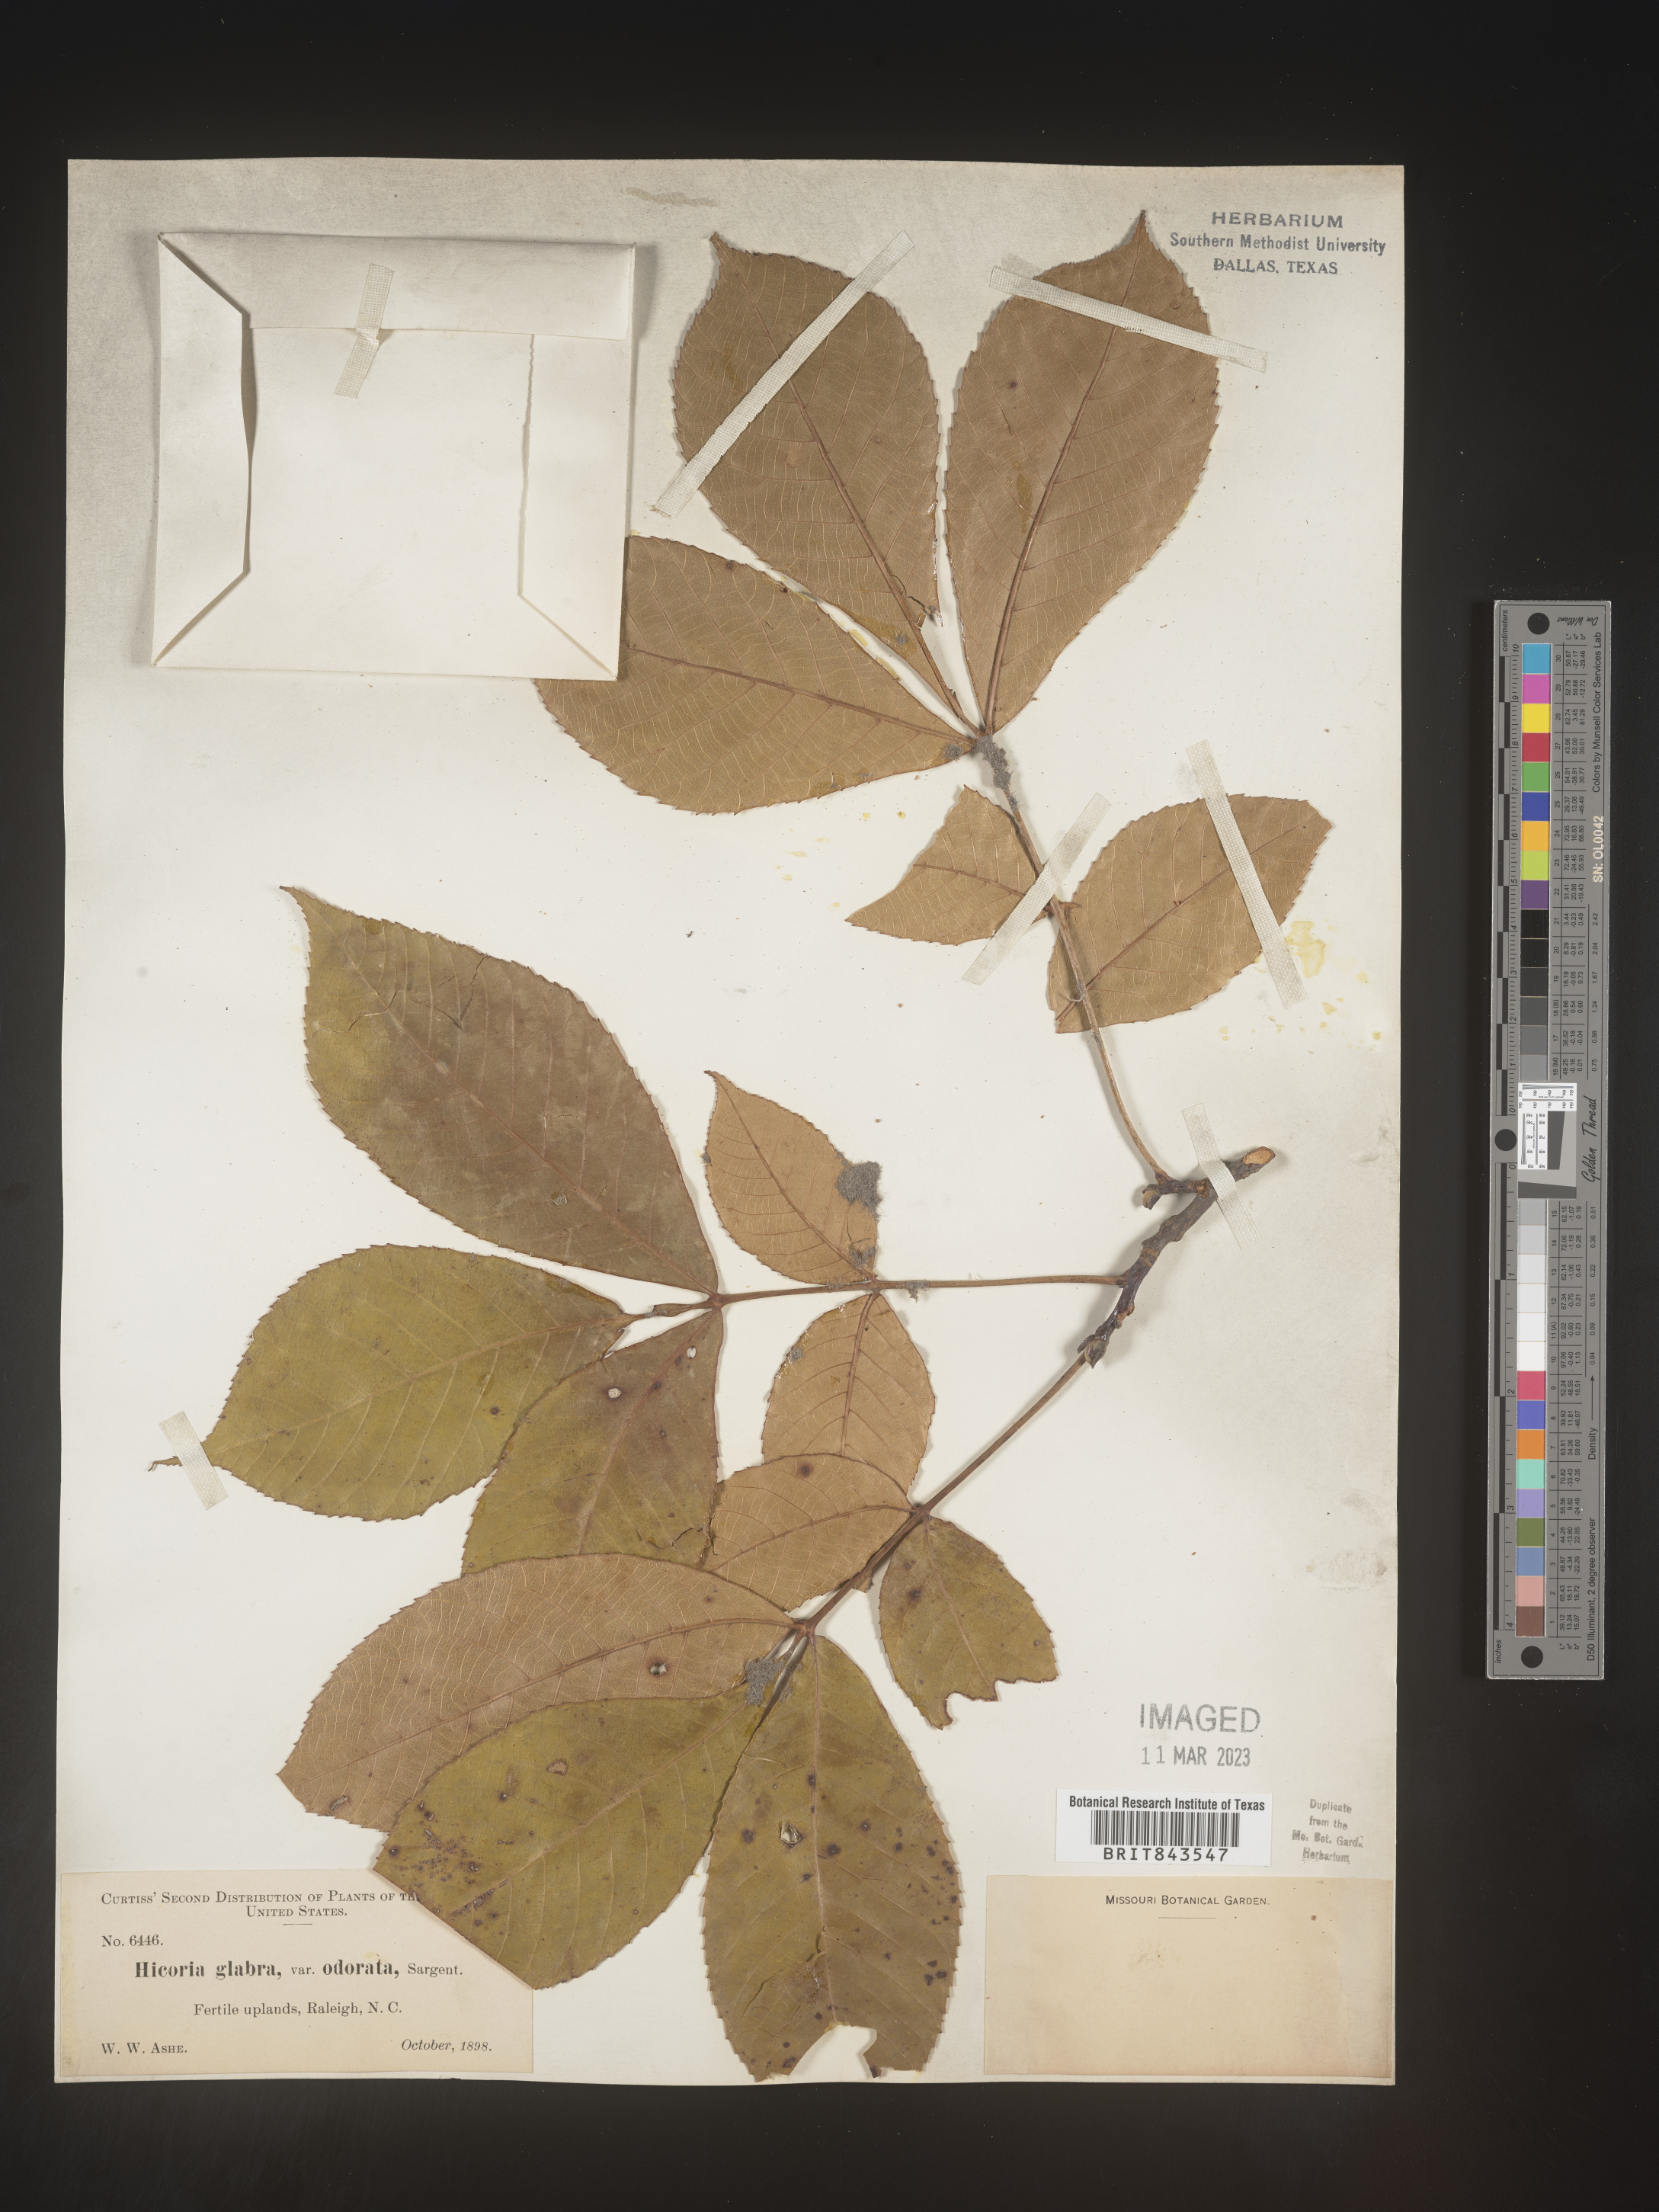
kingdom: Plantae
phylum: Tracheophyta
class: Magnoliopsida
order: Fagales
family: Juglandaceae
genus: Carya
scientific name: Carya glabra
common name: Pignut hickory
